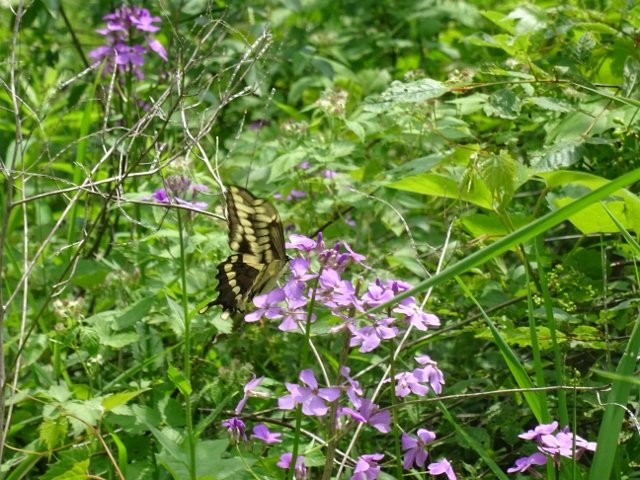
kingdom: Animalia
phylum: Arthropoda
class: Insecta
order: Lepidoptera
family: Papilionidae
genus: Papilio
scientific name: Papilio cresphontes
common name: Eastern Giant Swallowtail
